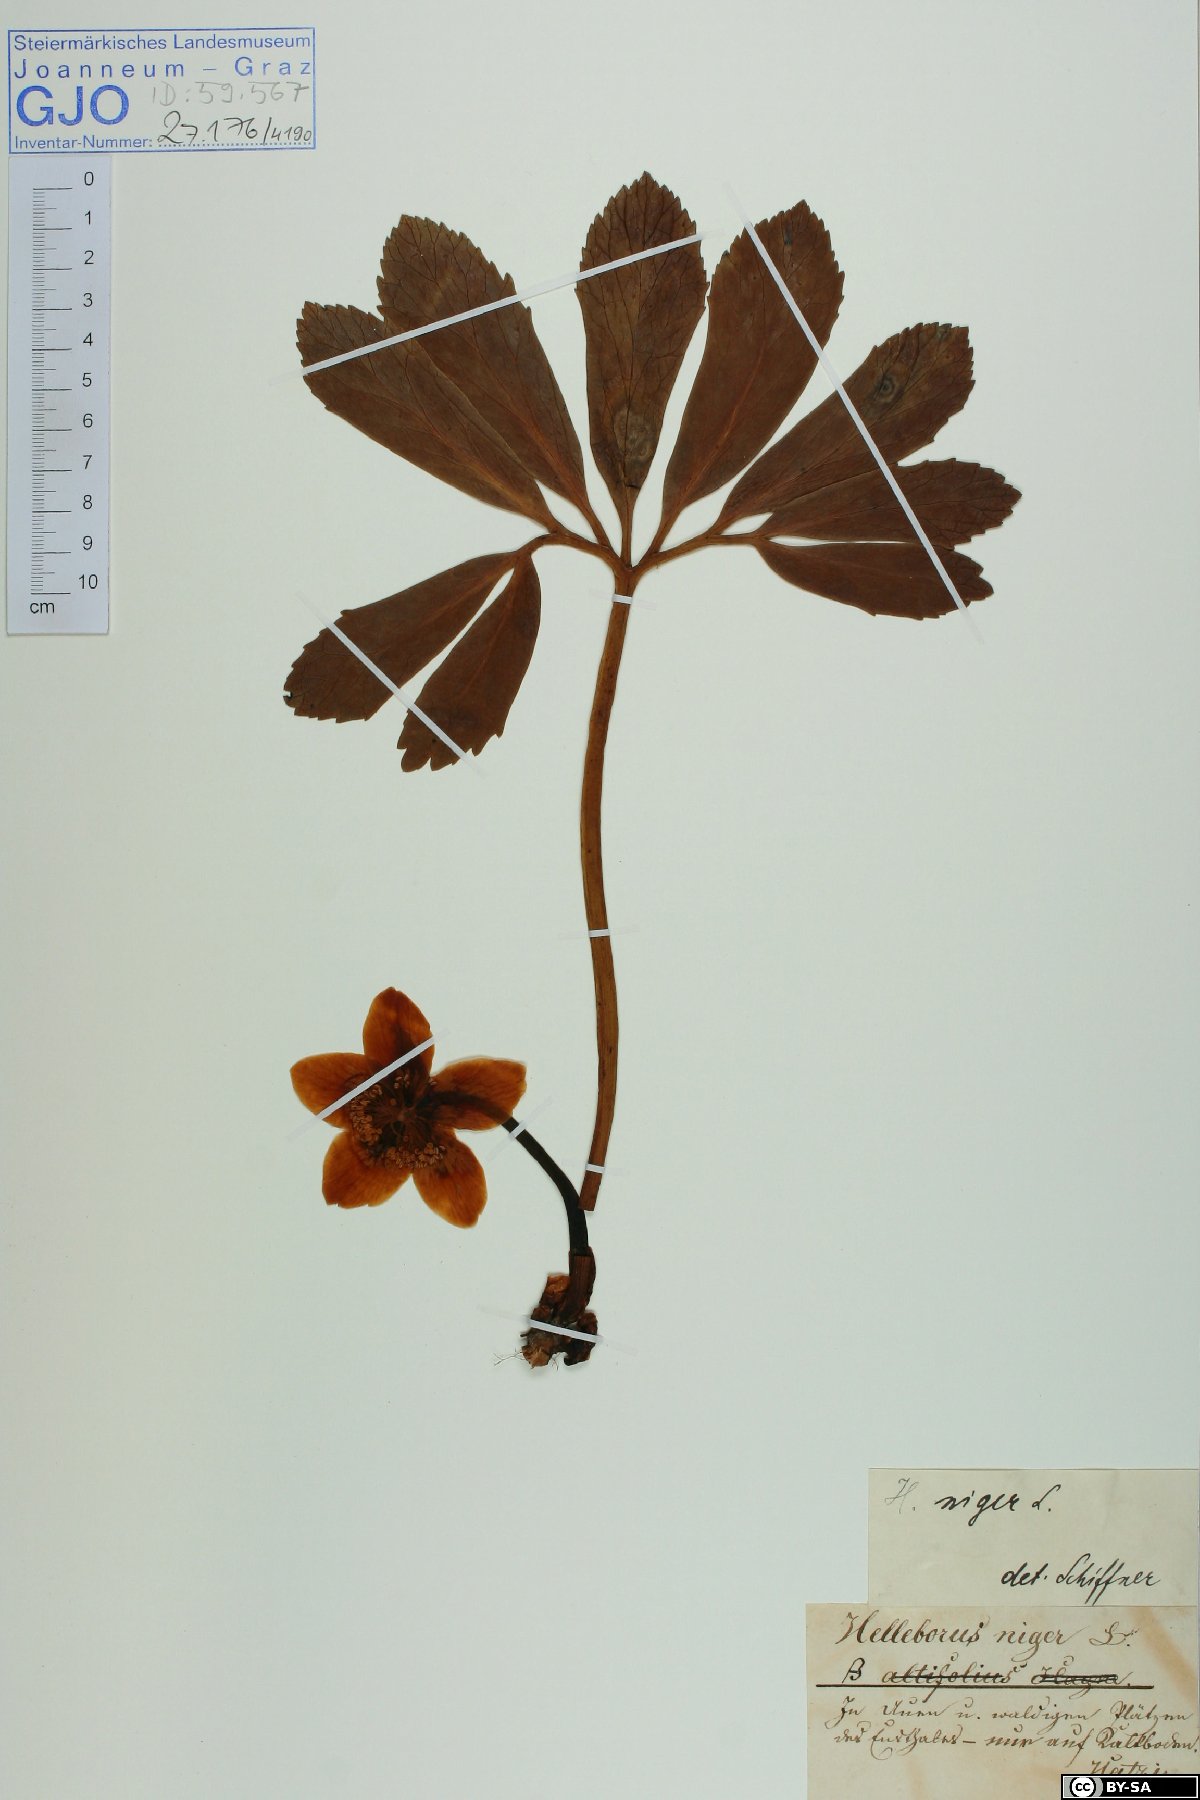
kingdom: Plantae
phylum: Tracheophyta
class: Magnoliopsida
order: Ranunculales
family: Ranunculaceae
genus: Helleborus
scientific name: Helleborus niger
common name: Black hellebore
